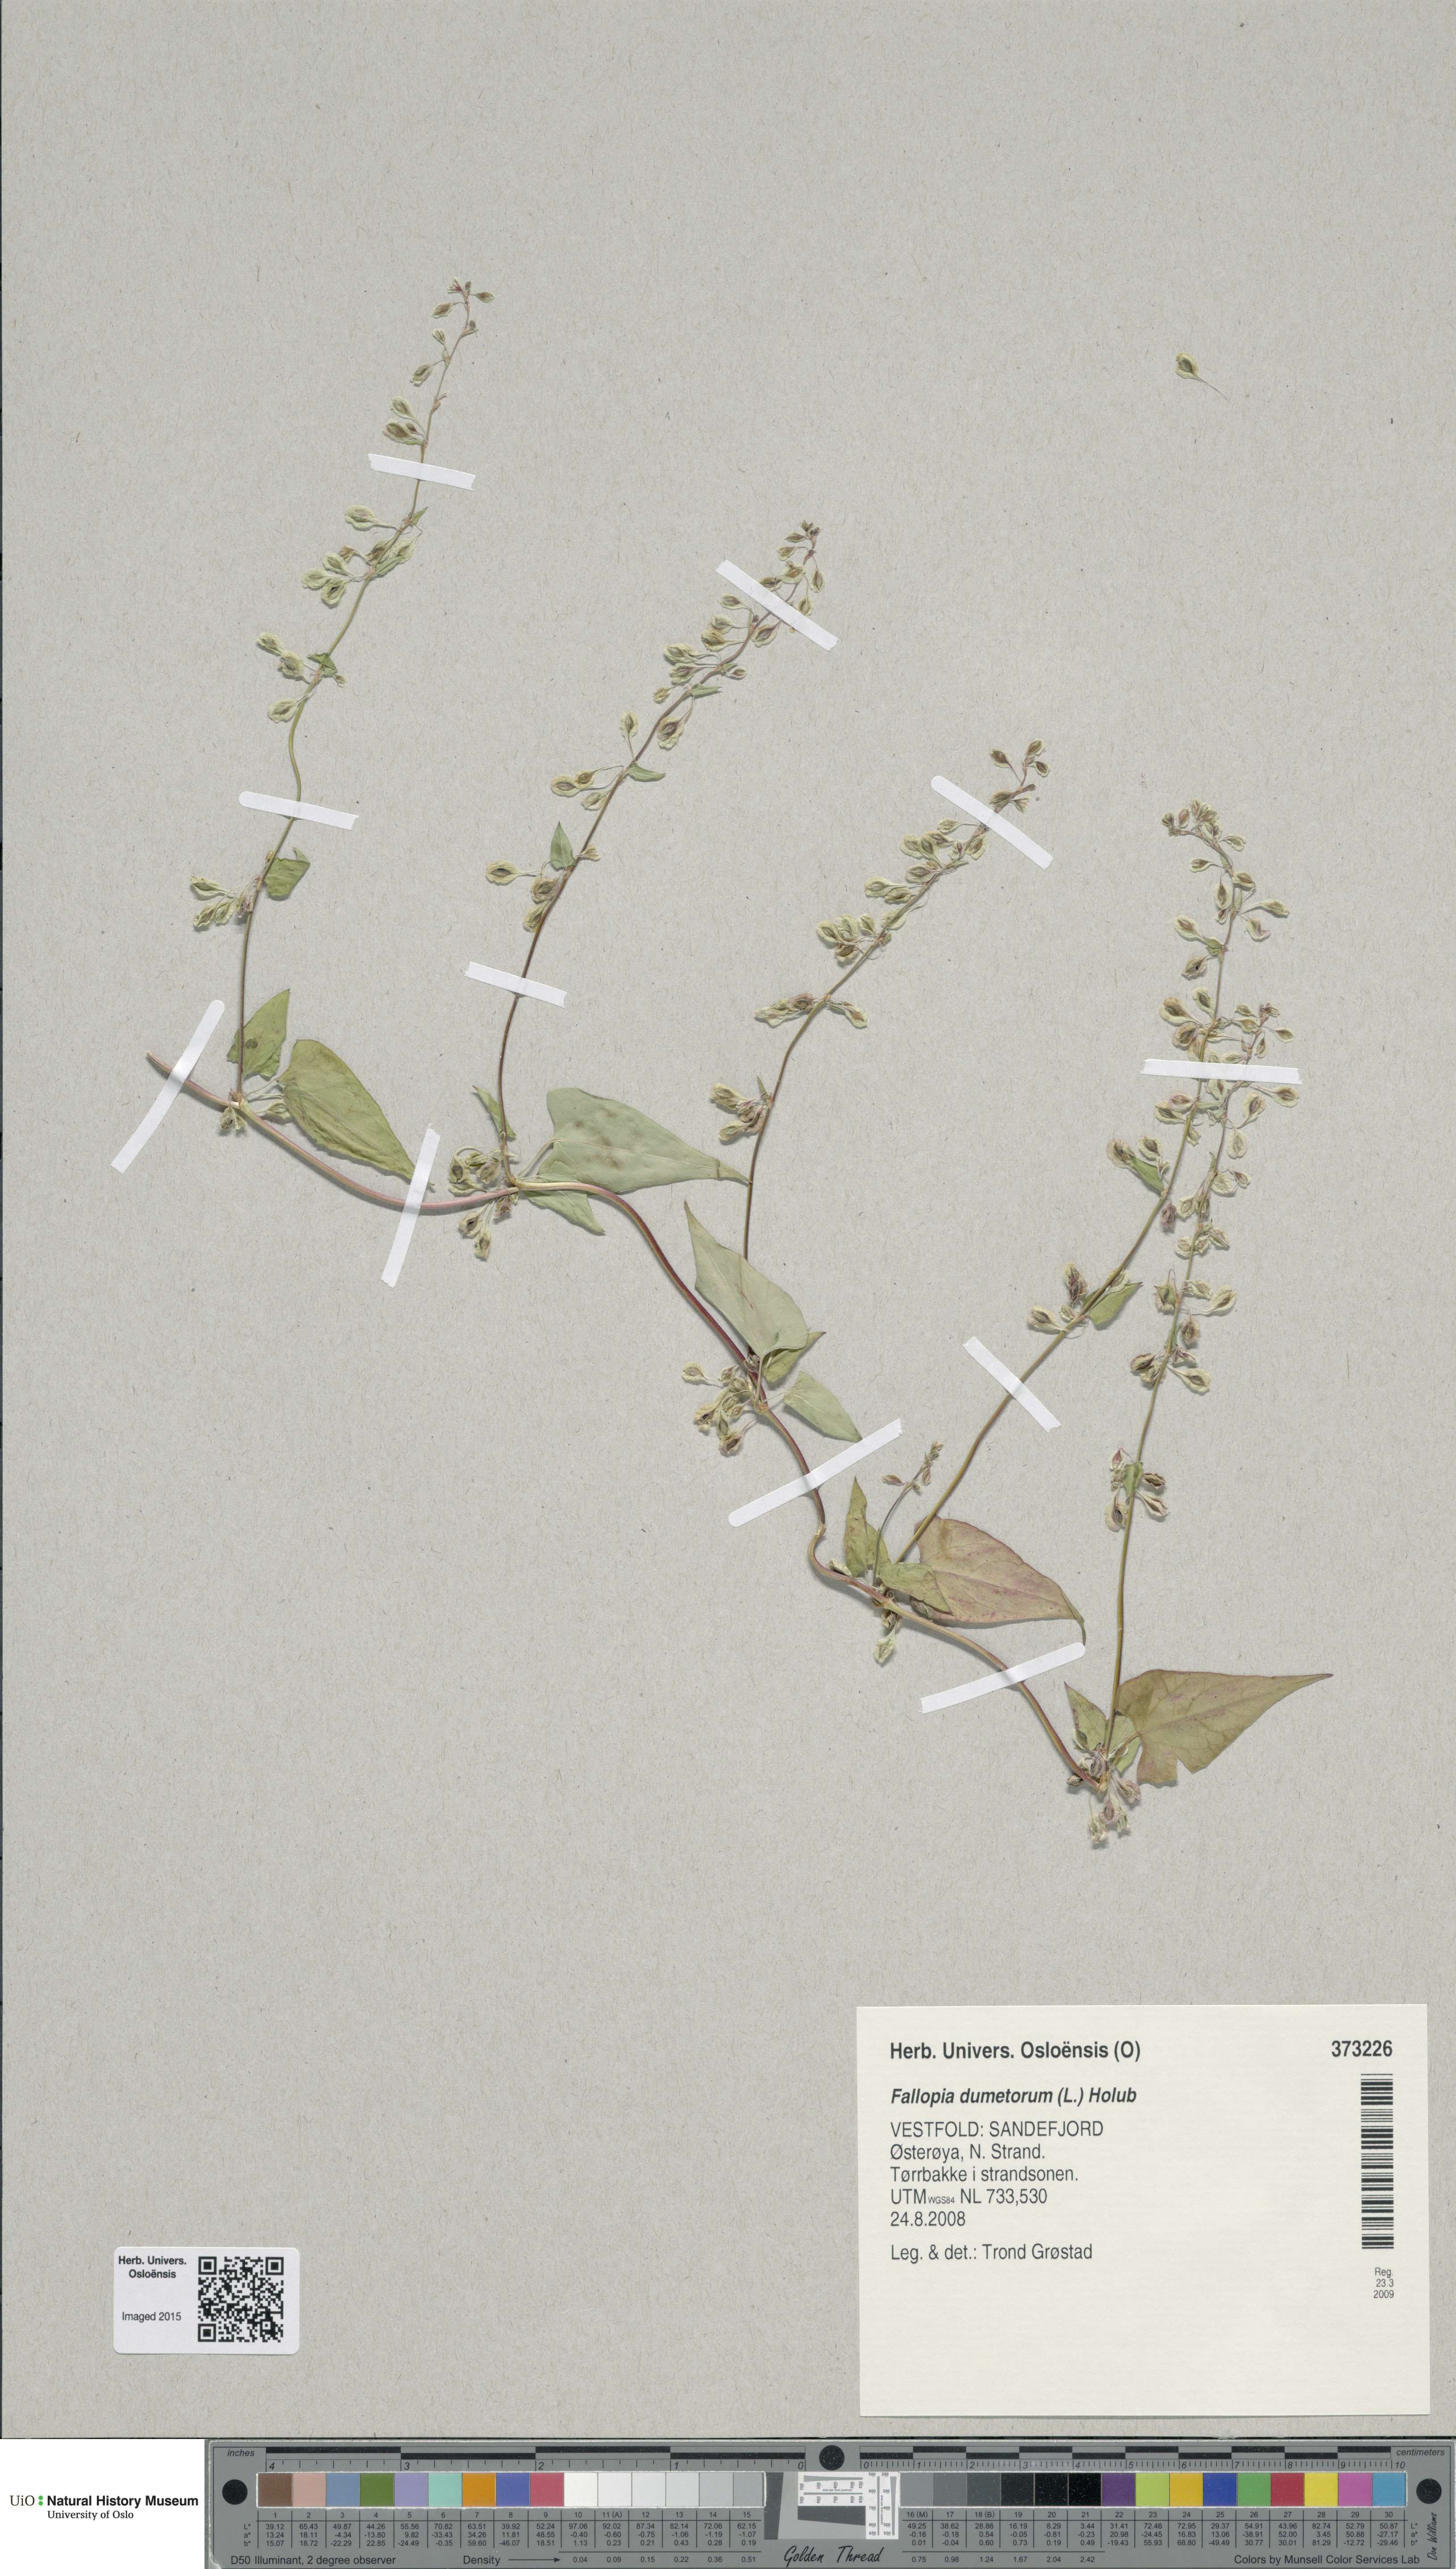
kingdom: Plantae
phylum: Tracheophyta
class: Magnoliopsida
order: Caryophyllales
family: Polygonaceae
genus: Fallopia
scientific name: Fallopia dumetorum
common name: Copse-bindweed
